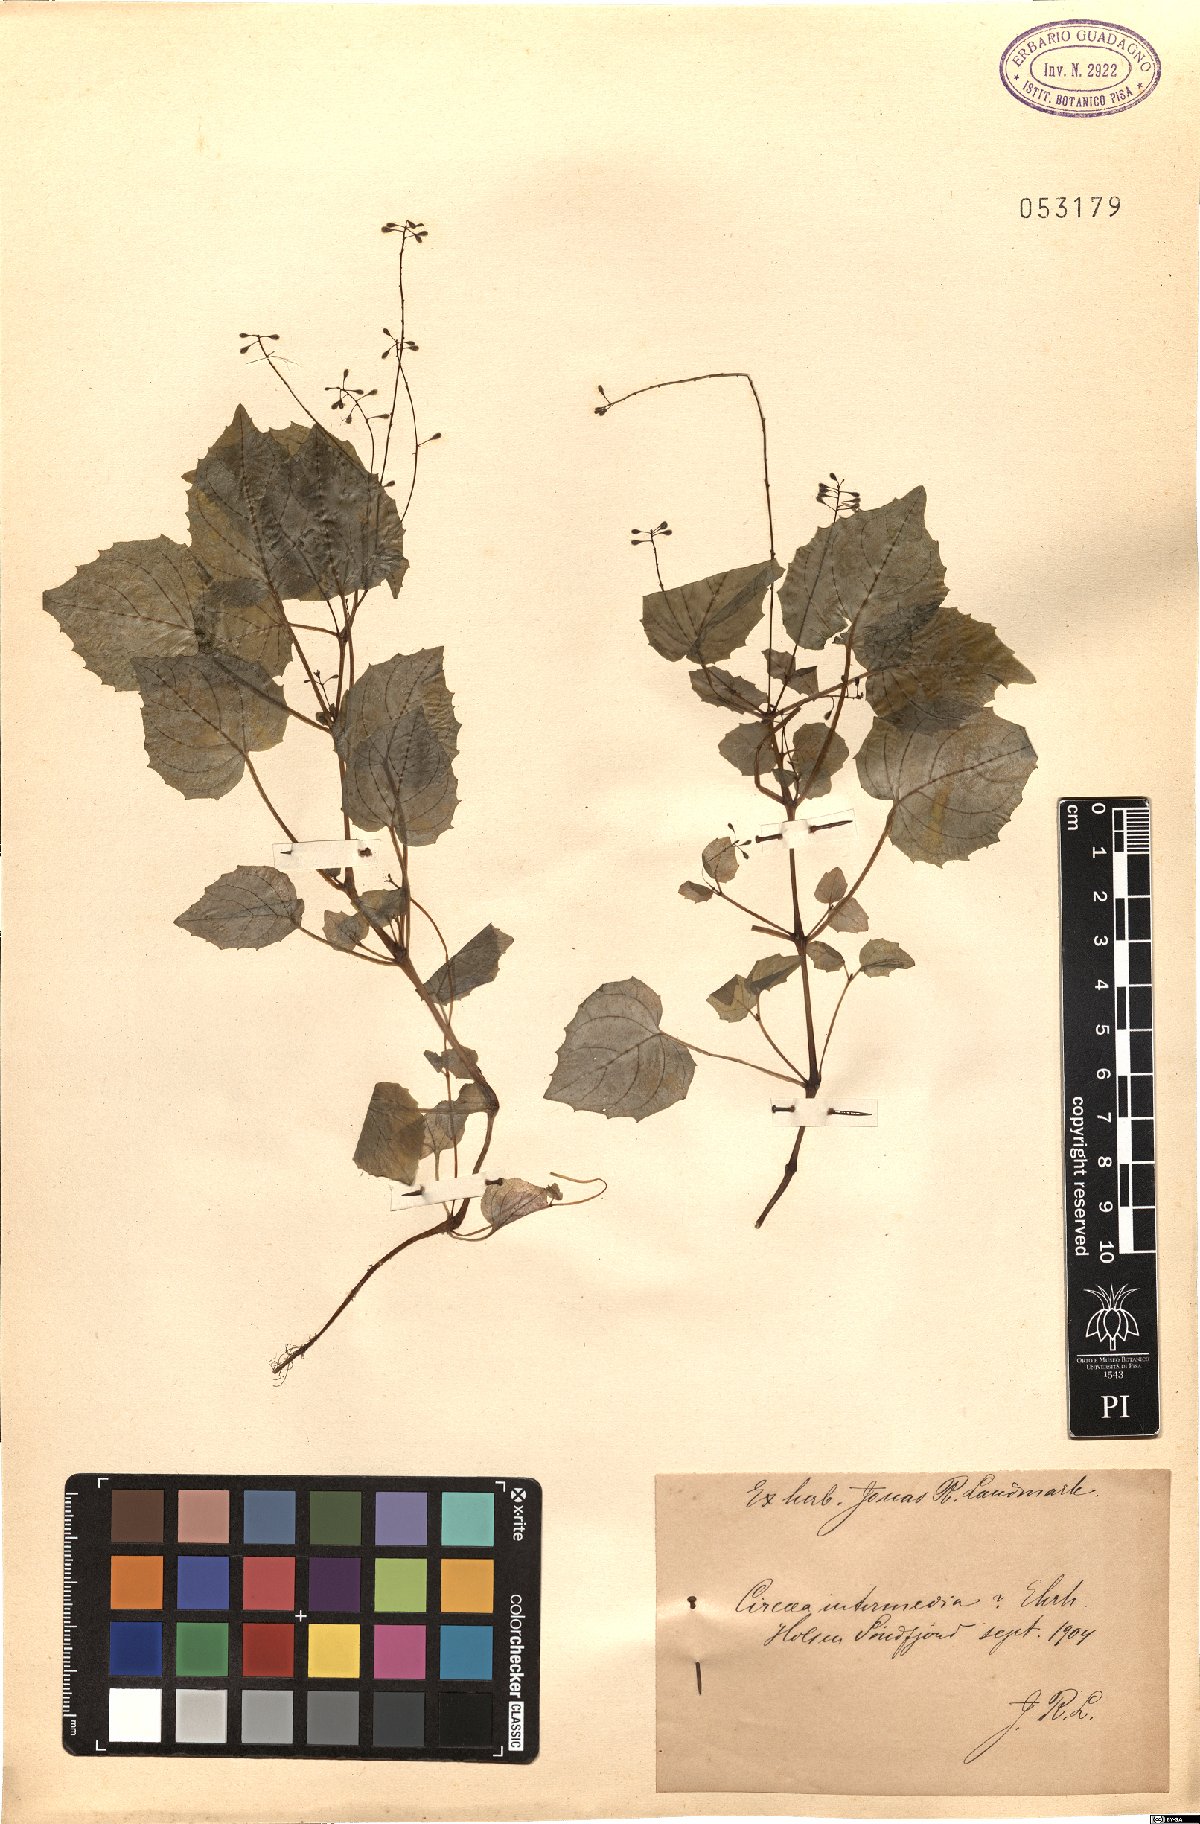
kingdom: Plantae
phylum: Tracheophyta
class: Magnoliopsida
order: Myrtales
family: Onagraceae
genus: Circaea
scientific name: Circaea intermedia
